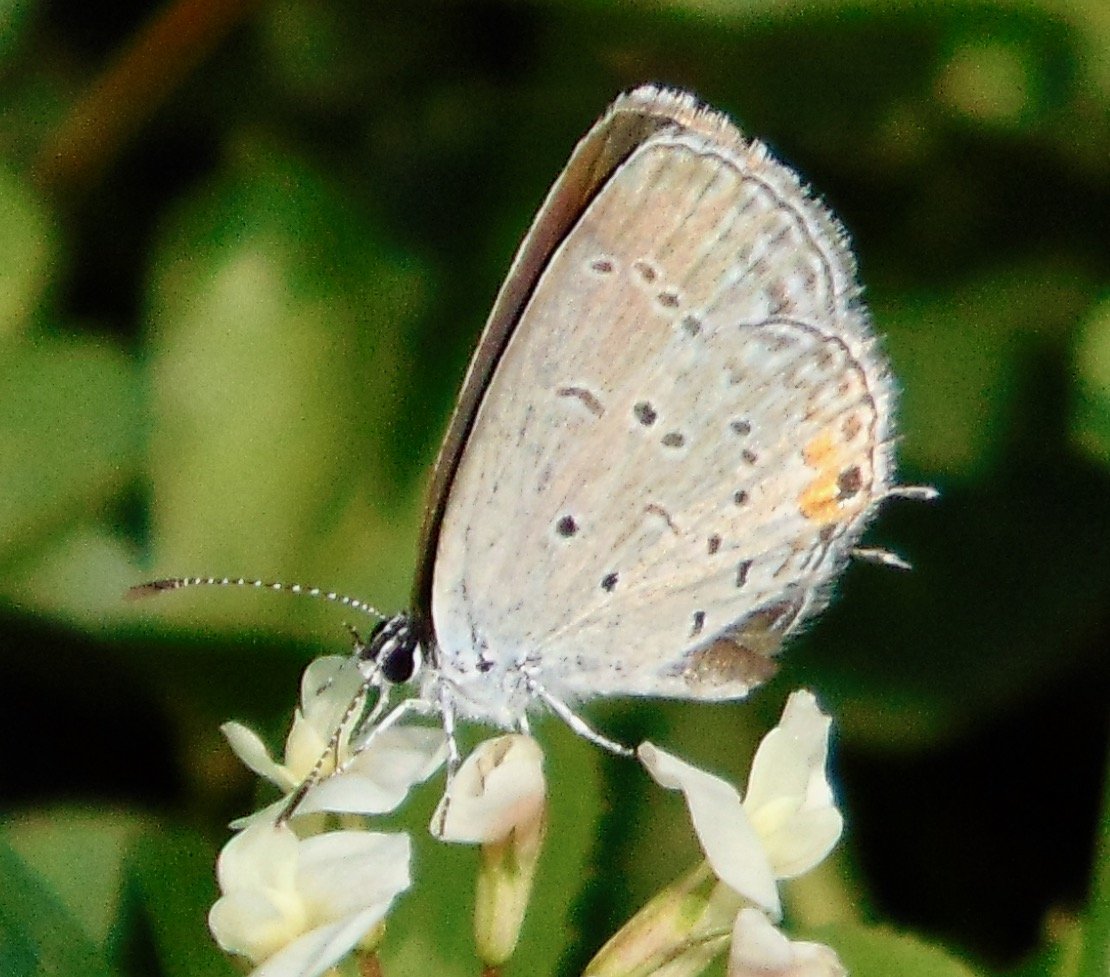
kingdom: Animalia
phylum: Arthropoda
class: Insecta
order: Lepidoptera
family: Lycaenidae
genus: Elkalyce
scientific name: Elkalyce comyntas
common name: Eastern Tailed-Blue
